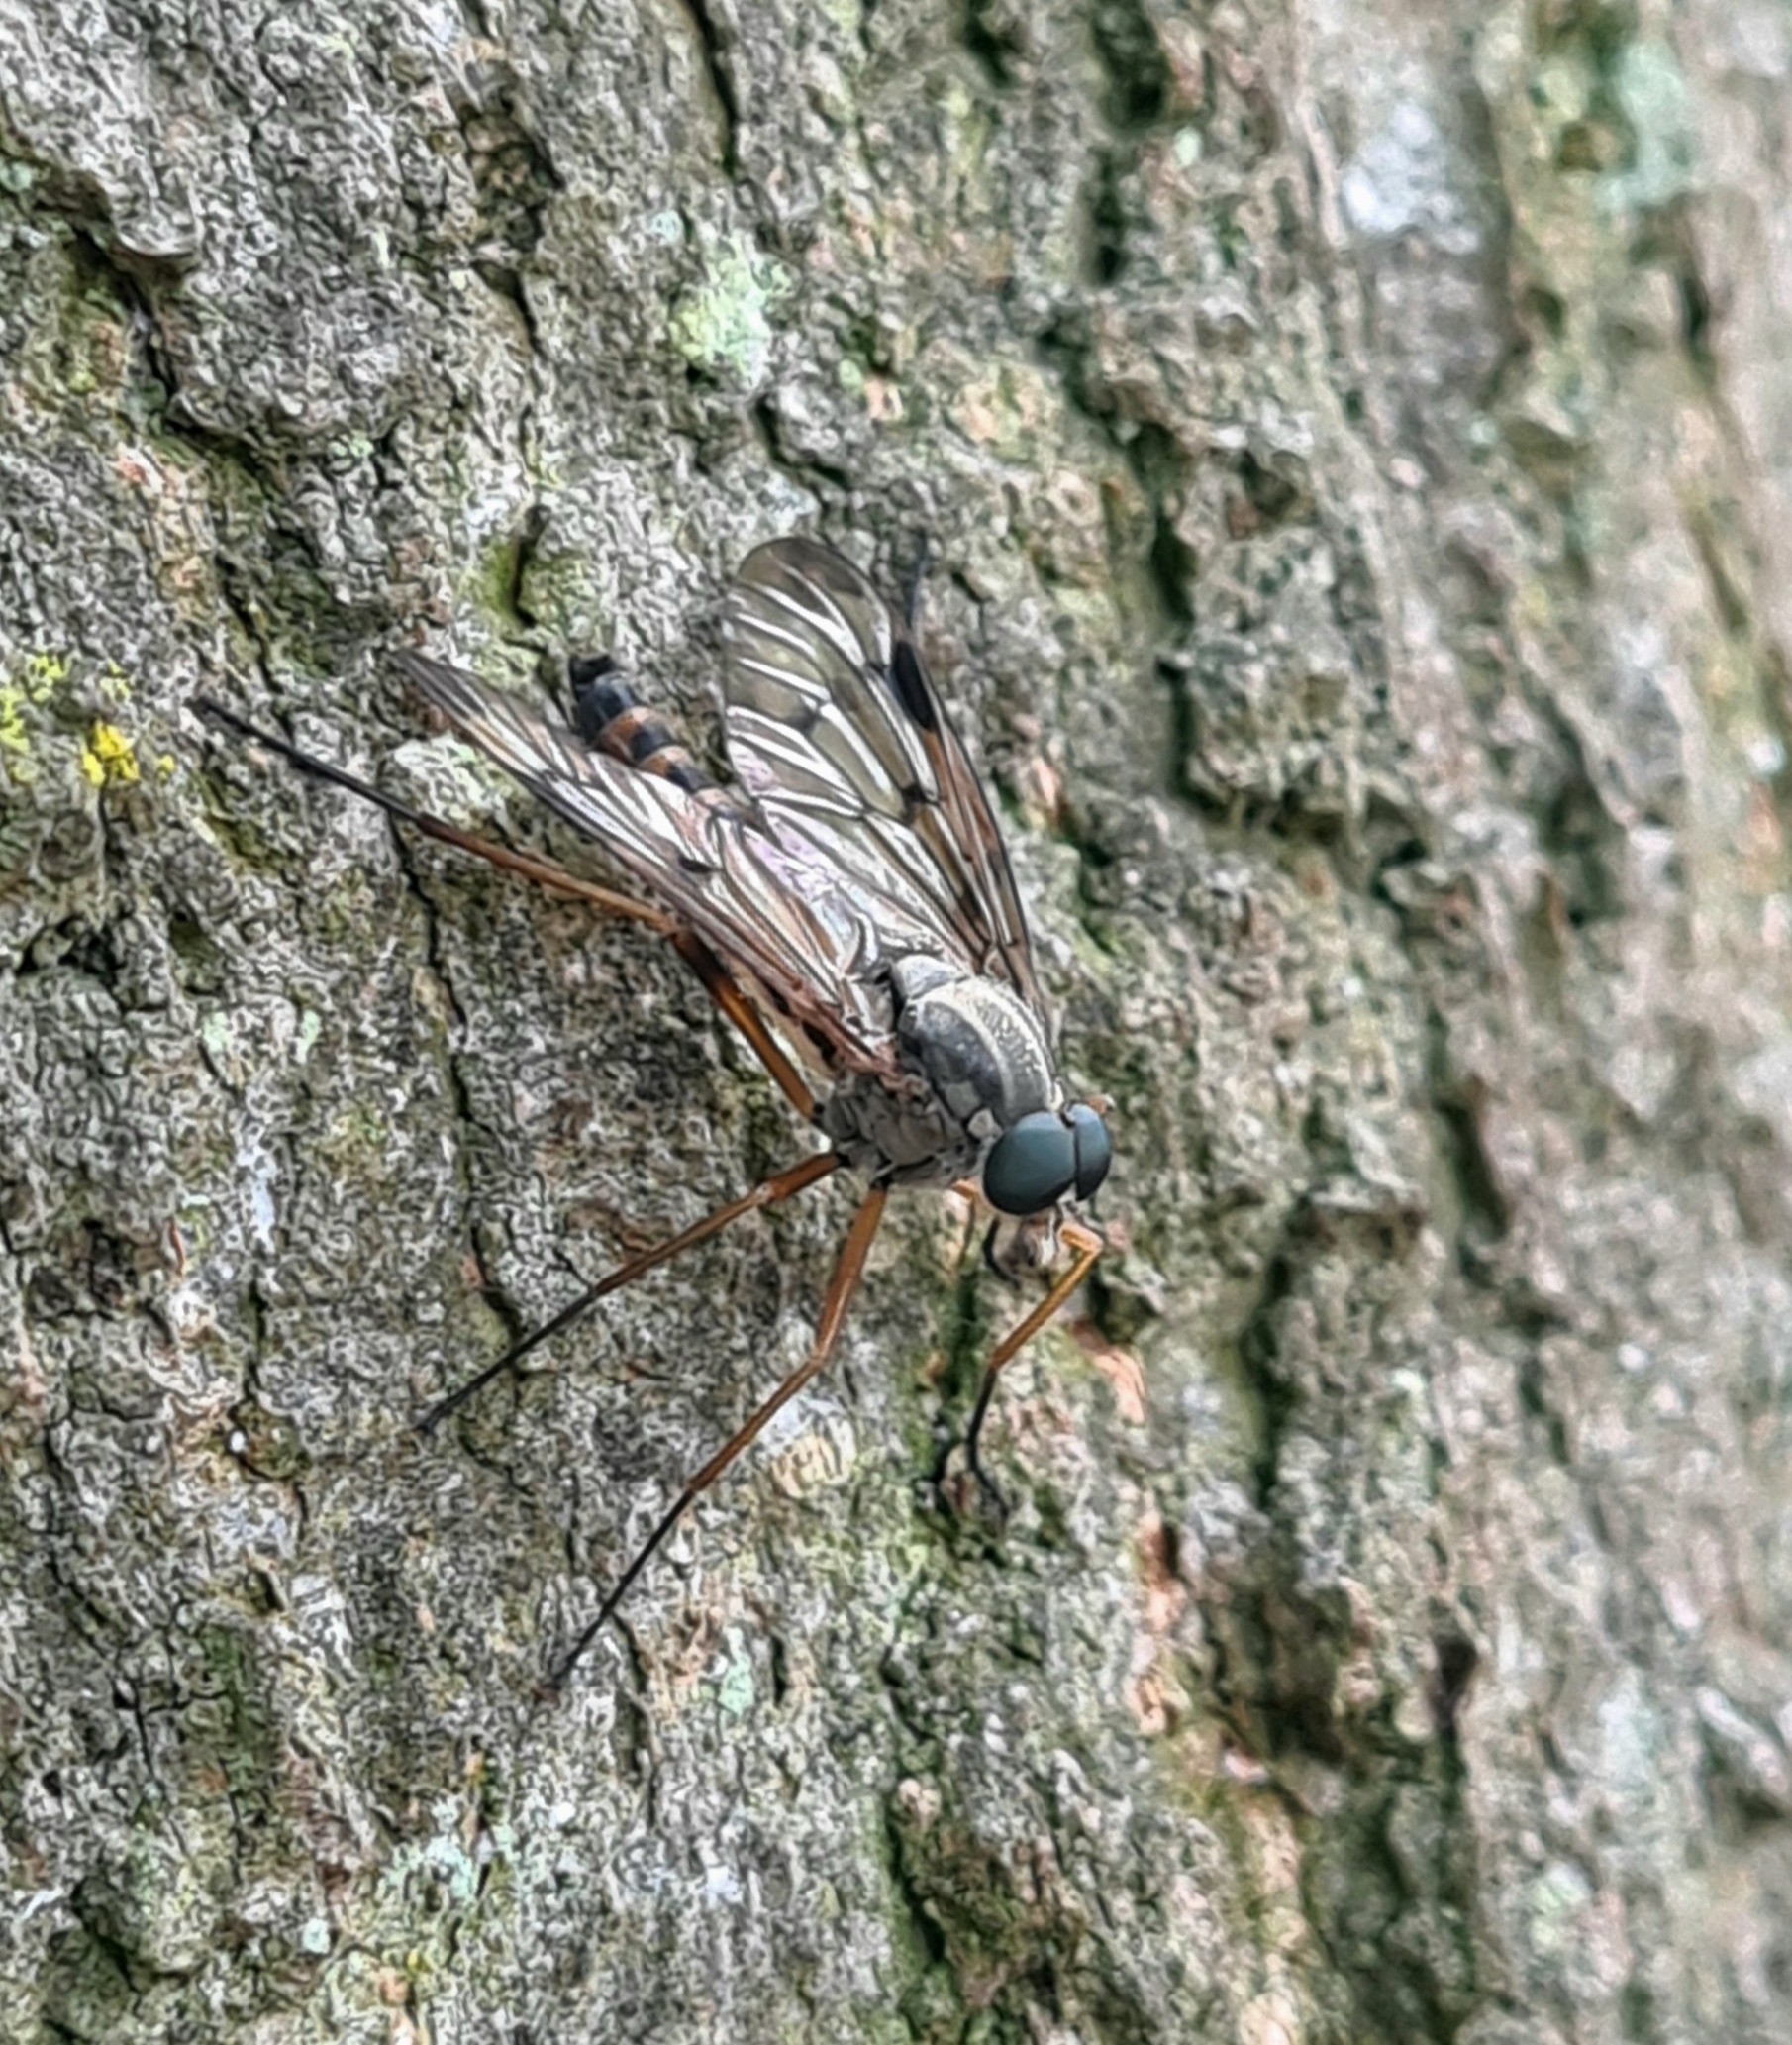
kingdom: Animalia
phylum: Arthropoda
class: Insecta
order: Diptera
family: Rhagionidae
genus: Rhagio
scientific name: Rhagio scolopacea
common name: Almindelig sneppeflue
